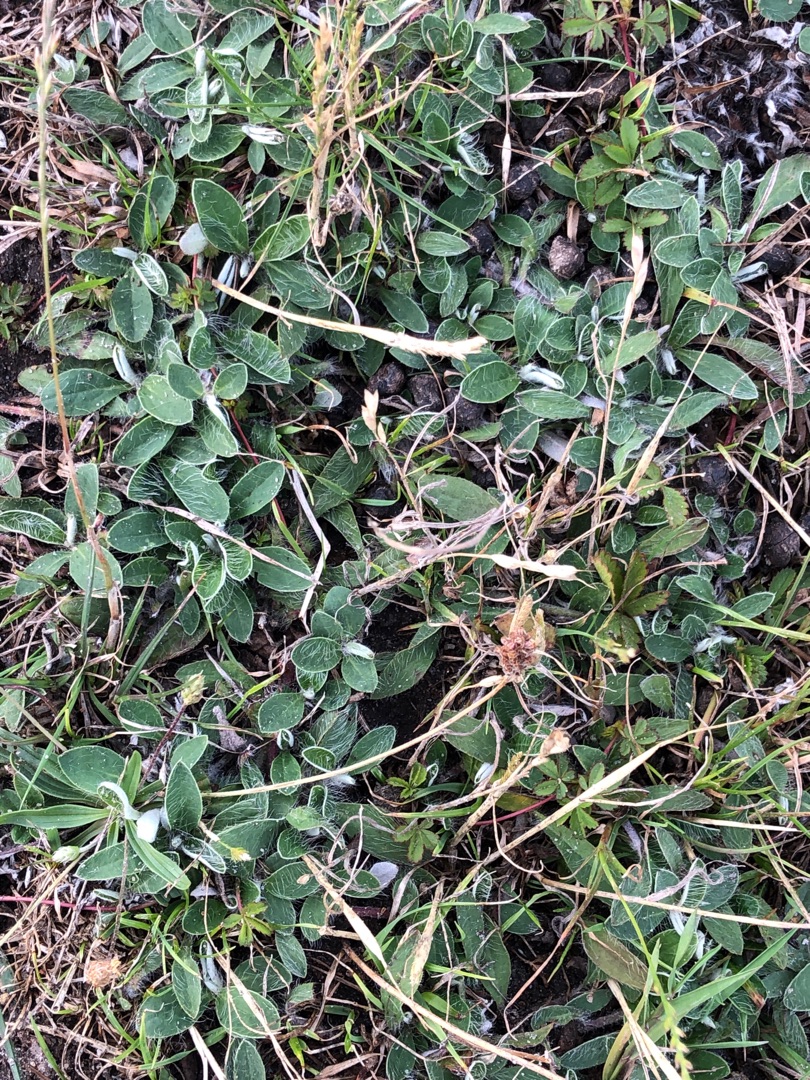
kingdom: Plantae
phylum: Tracheophyta
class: Magnoliopsida
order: Asterales
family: Asteraceae
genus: Pilosella
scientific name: Pilosella officinarum
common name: Håret høgeurt
